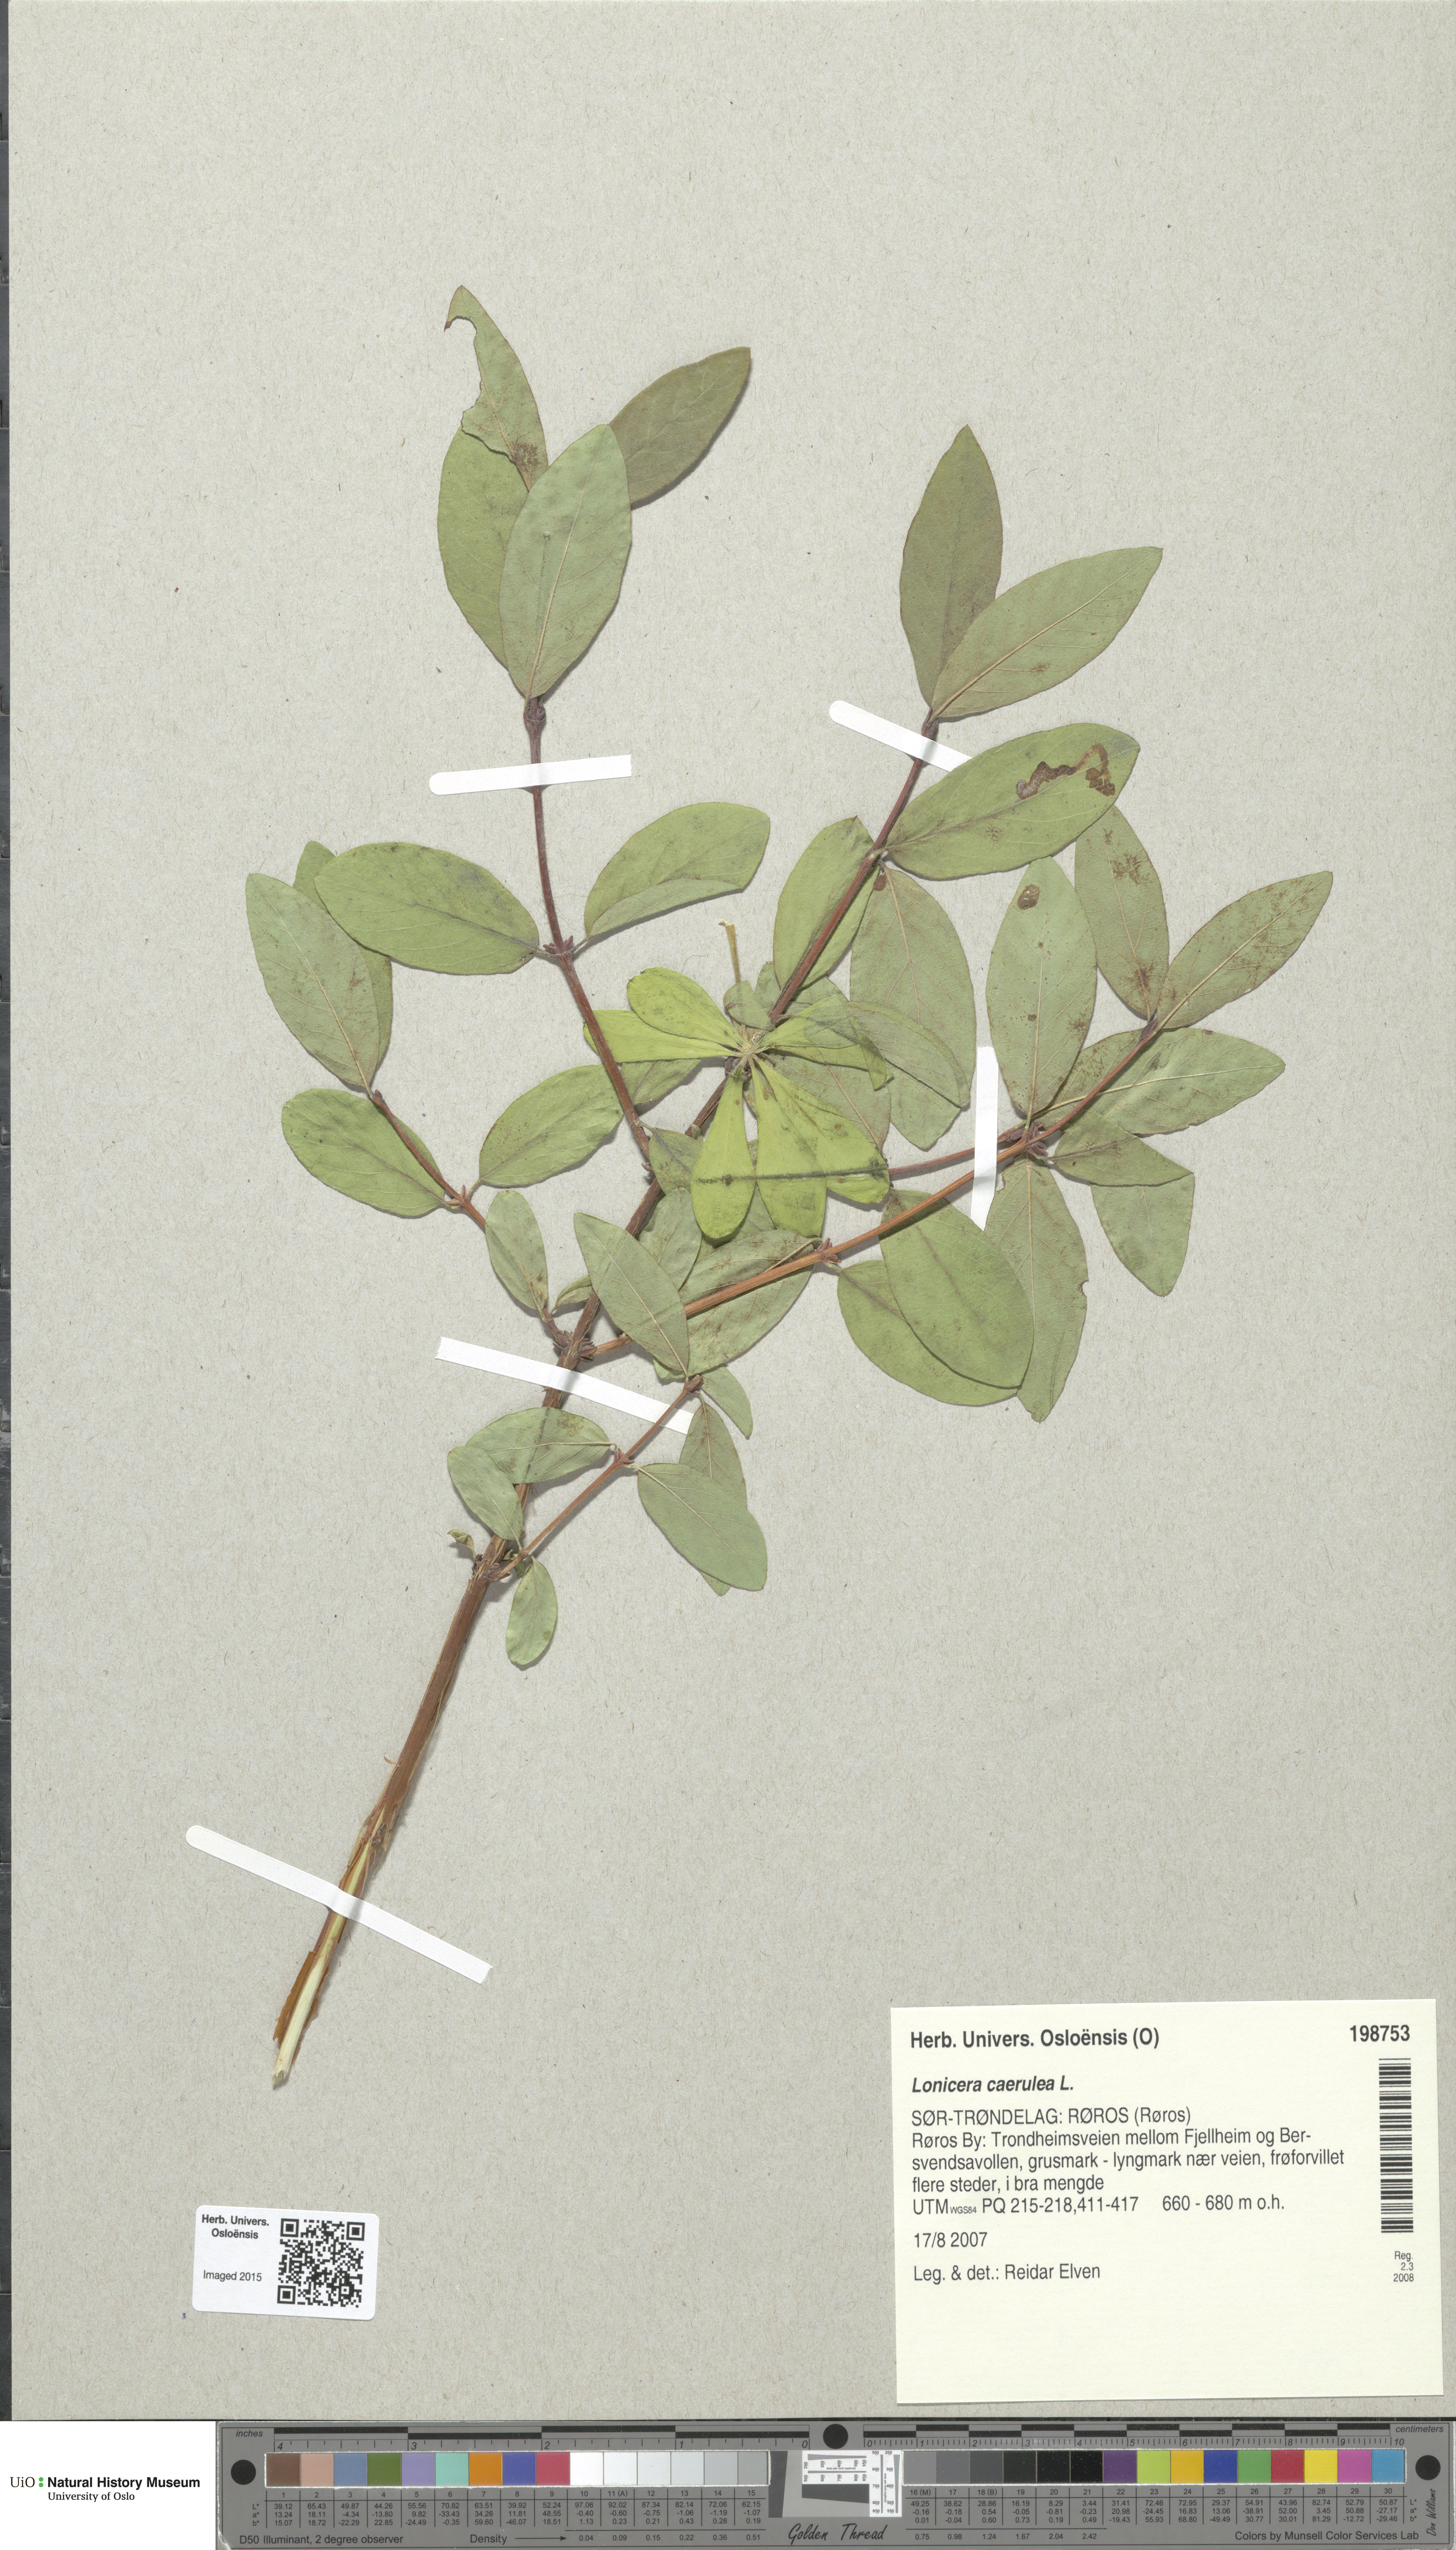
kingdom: Plantae
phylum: Tracheophyta
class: Magnoliopsida
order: Dipsacales
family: Caprifoliaceae
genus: Lonicera
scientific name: Lonicera caerulea
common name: Blue honeysuckle
